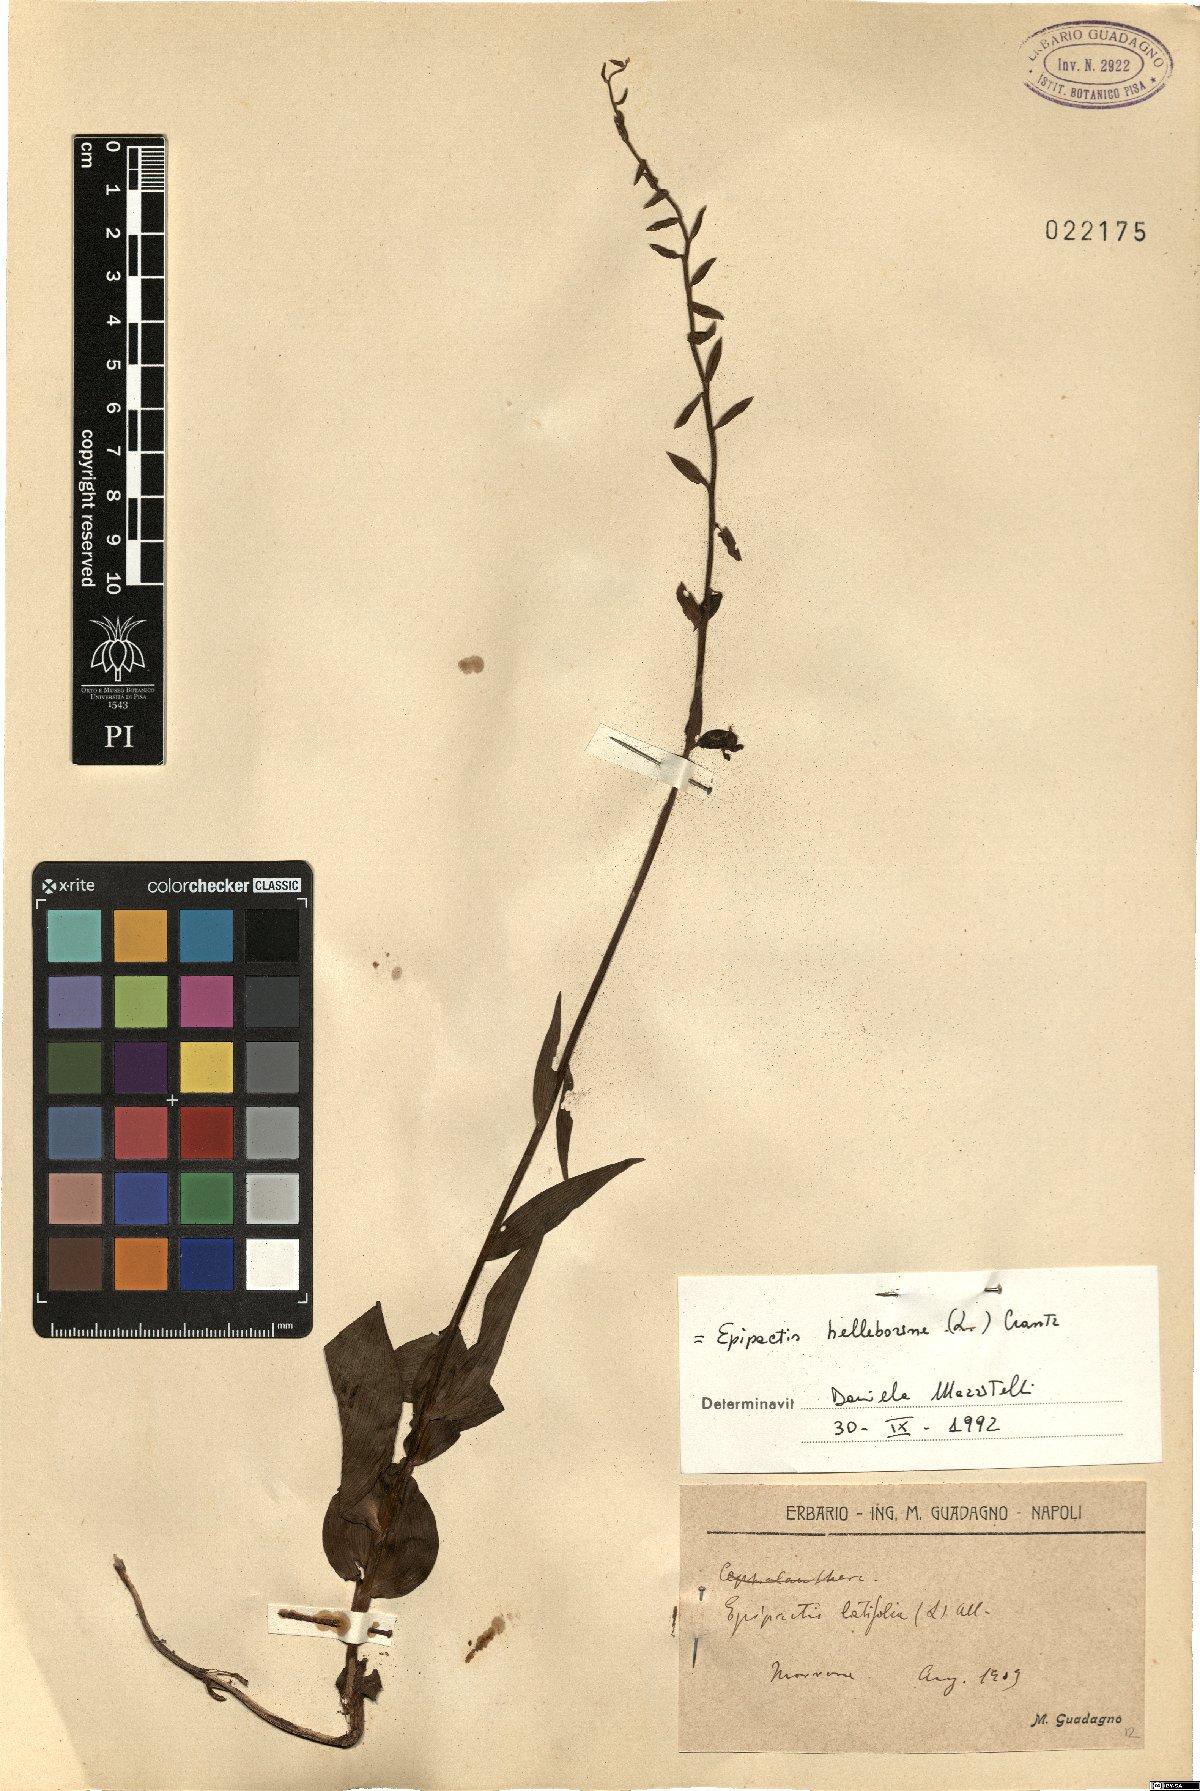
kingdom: Plantae
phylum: Tracheophyta
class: Liliopsida
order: Asparagales
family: Orchidaceae
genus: Epipactis
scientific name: Epipactis helleborine
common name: Broad-leaved helleborine
